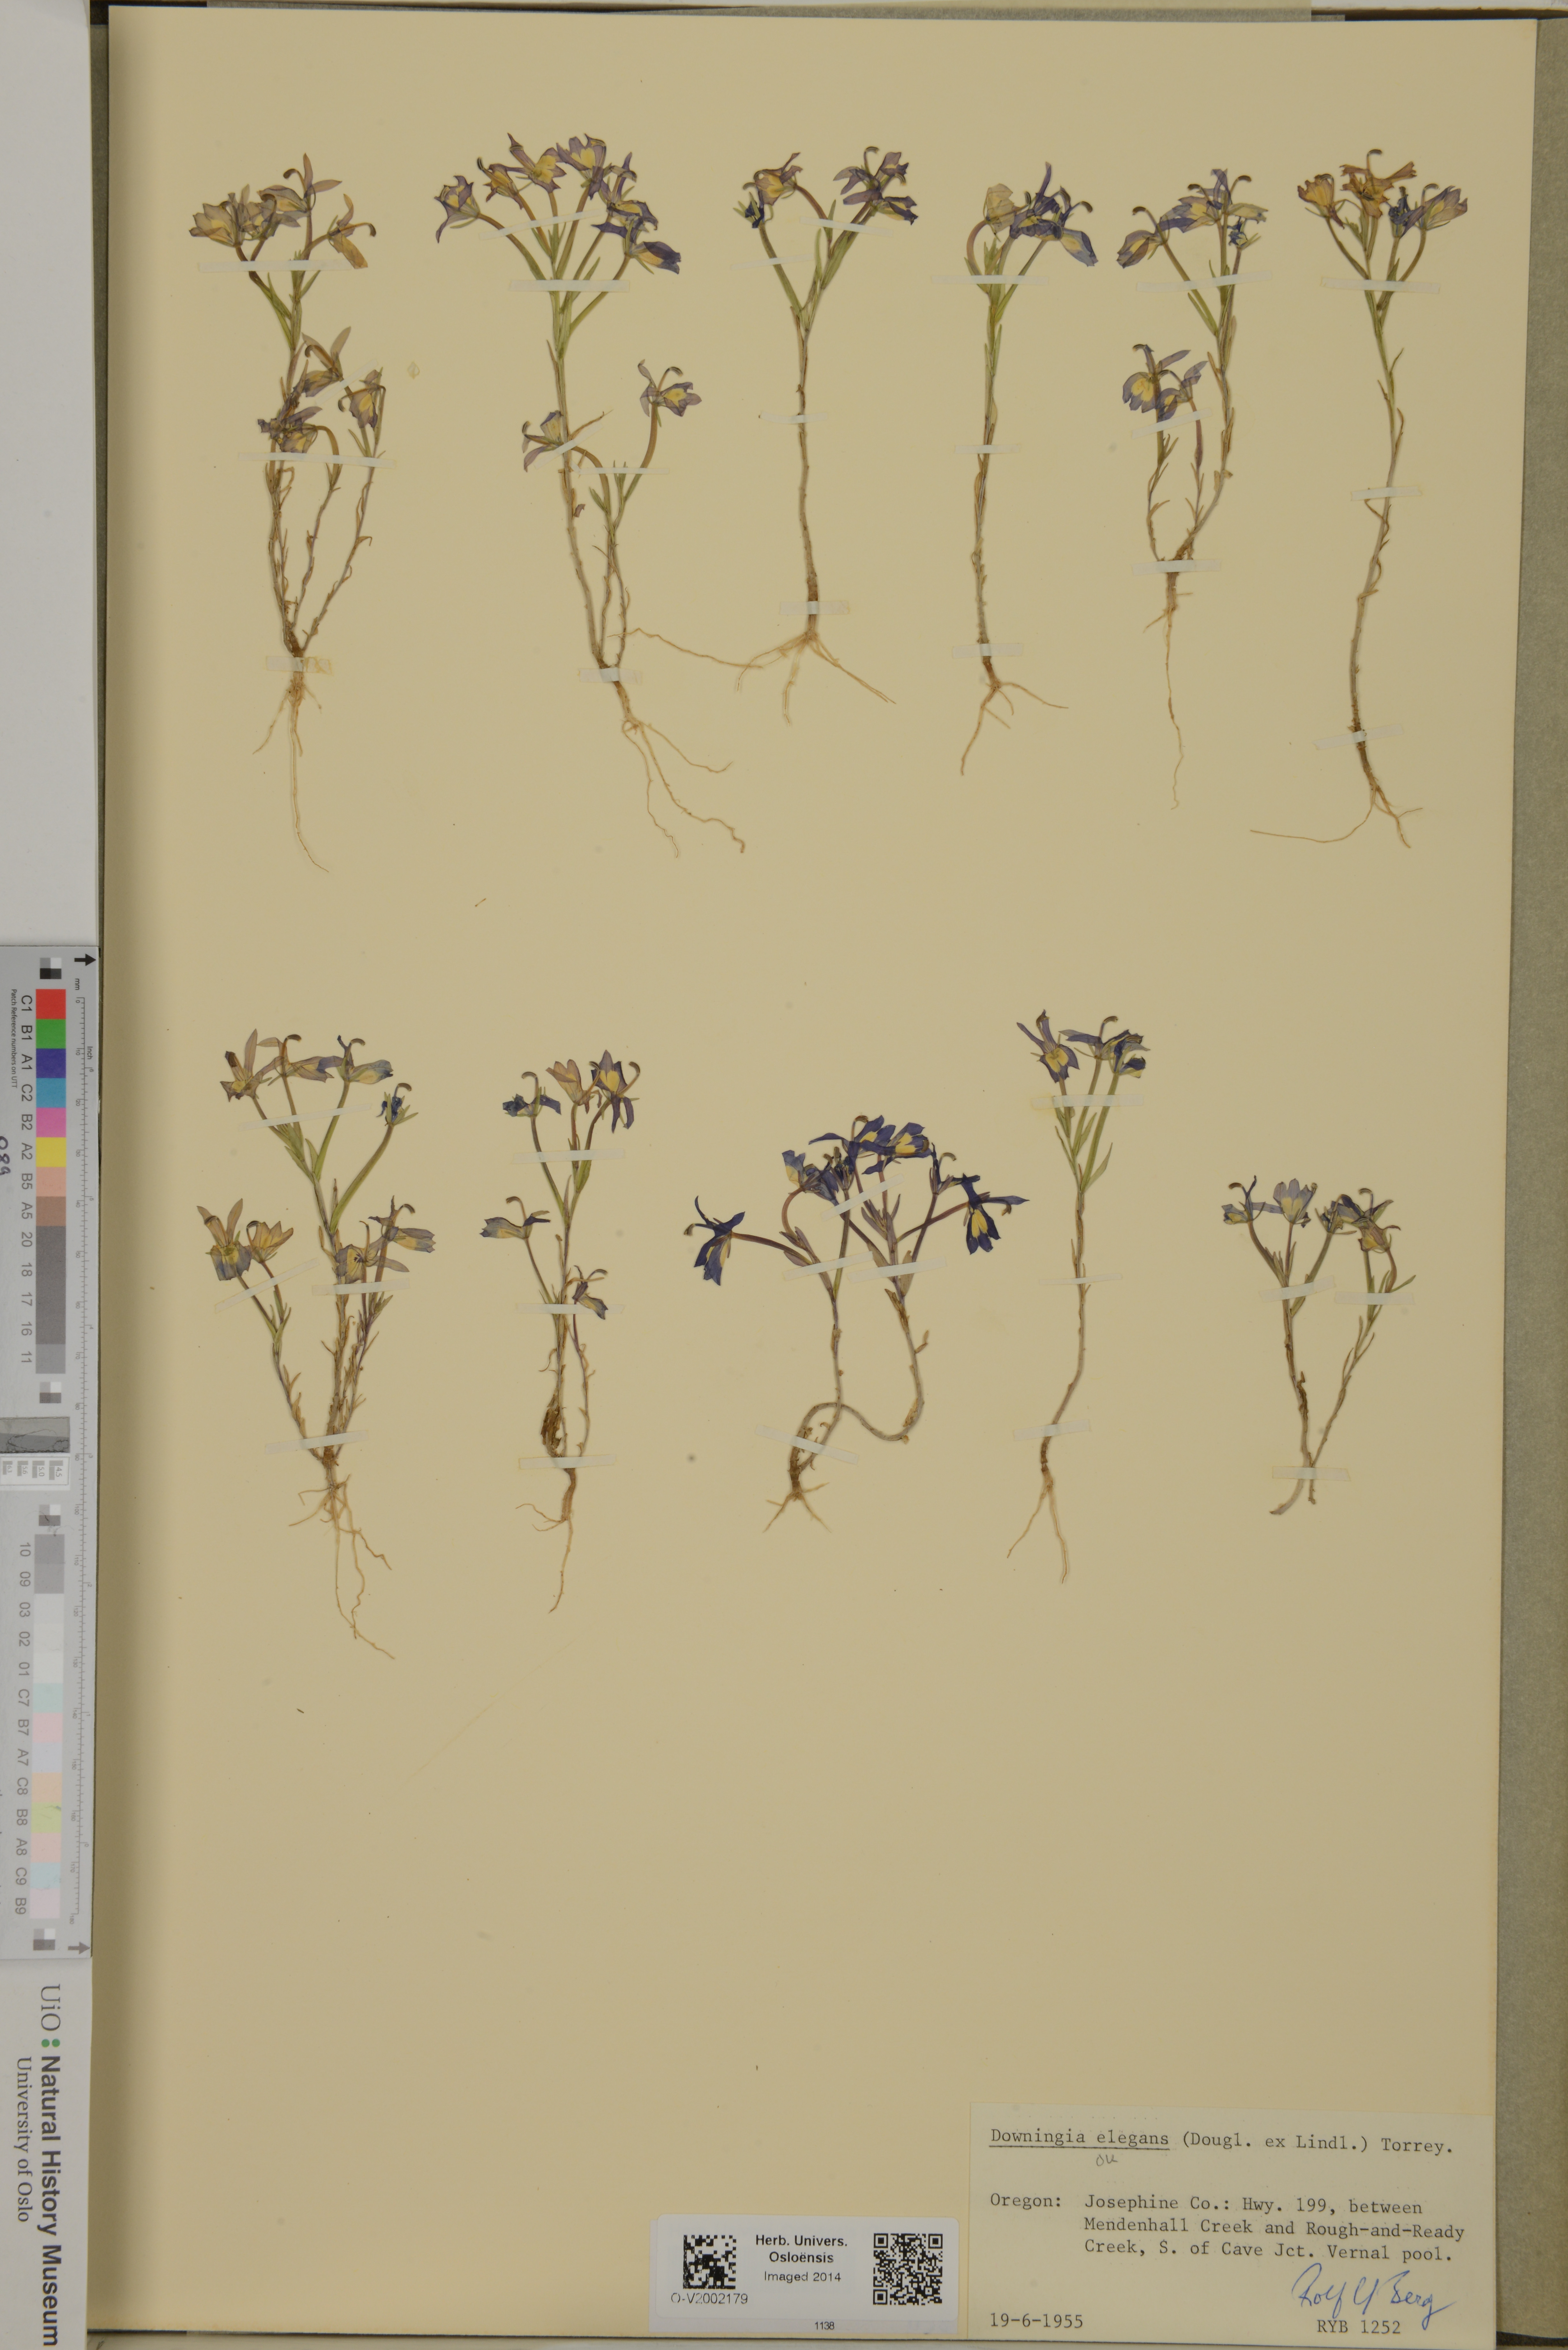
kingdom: Plantae
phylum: Tracheophyta
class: Magnoliopsida
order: Asterales
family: Campanulaceae
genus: Downingia
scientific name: Downingia elegans
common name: Californian lobelia
